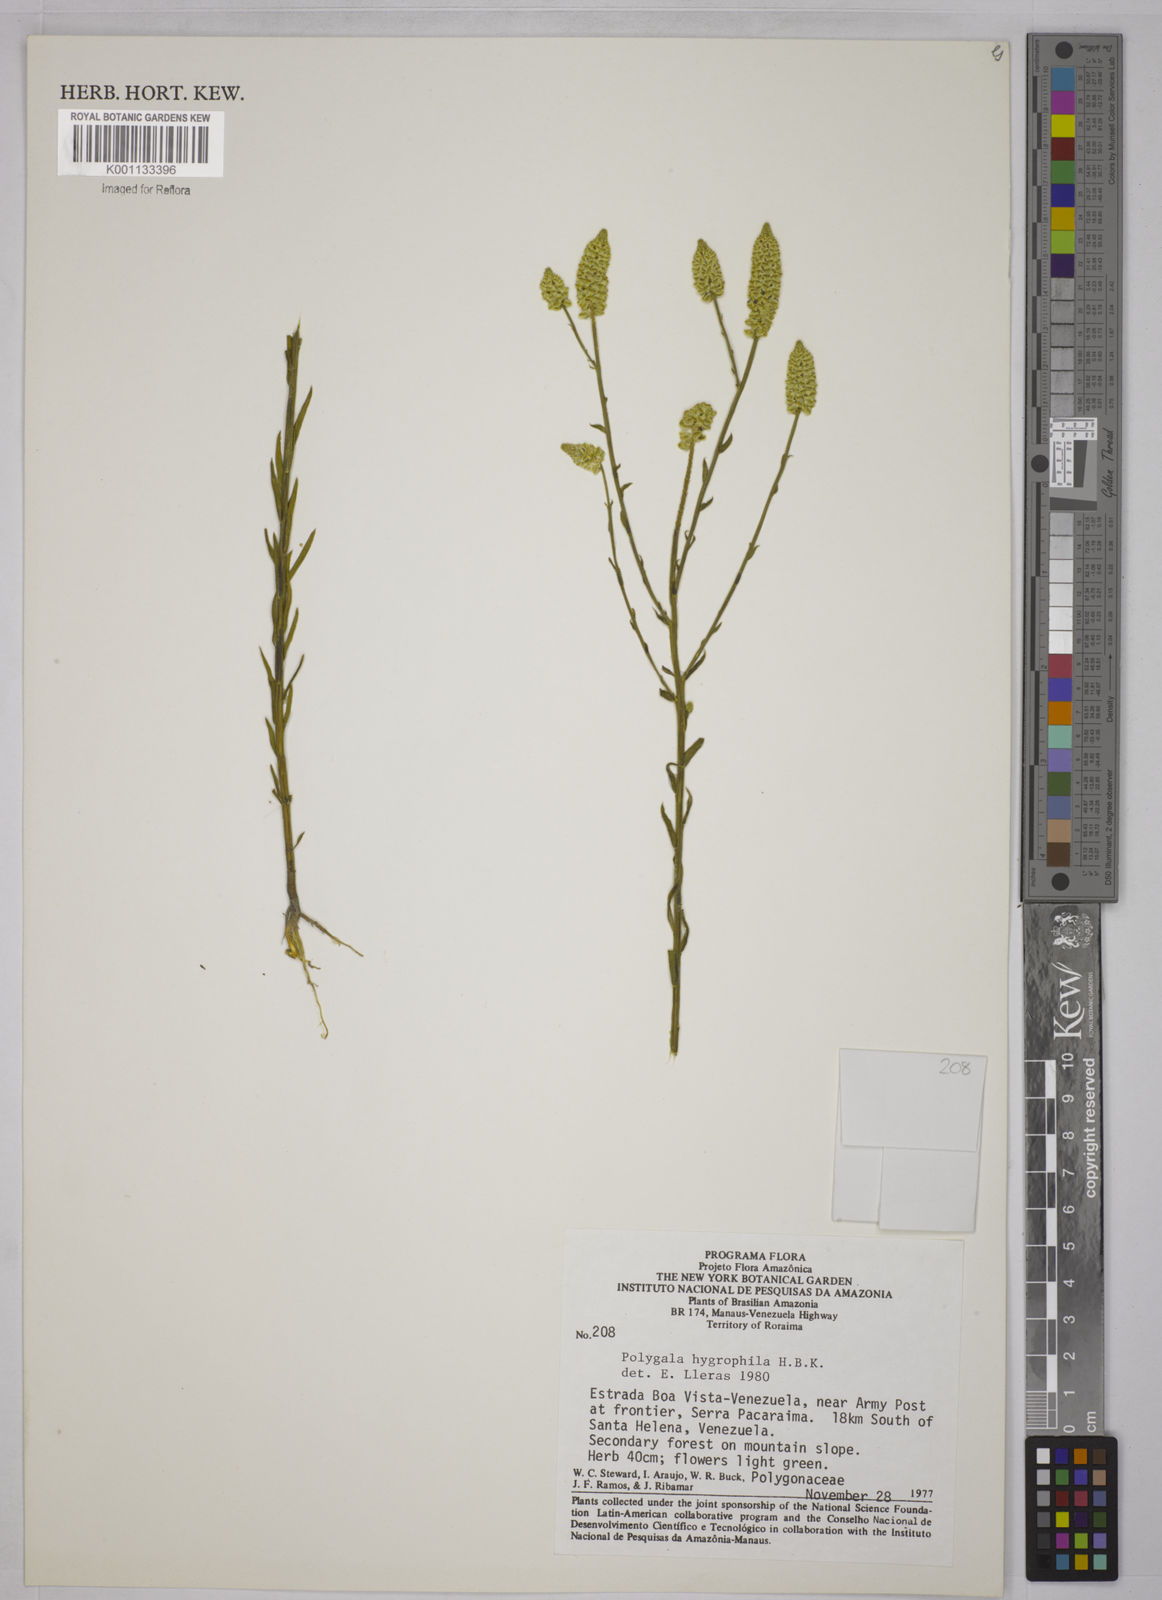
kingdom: Plantae
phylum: Tracheophyta
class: Magnoliopsida
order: Fabales
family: Polygalaceae
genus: Polygala
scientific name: Polygala hygrophila
